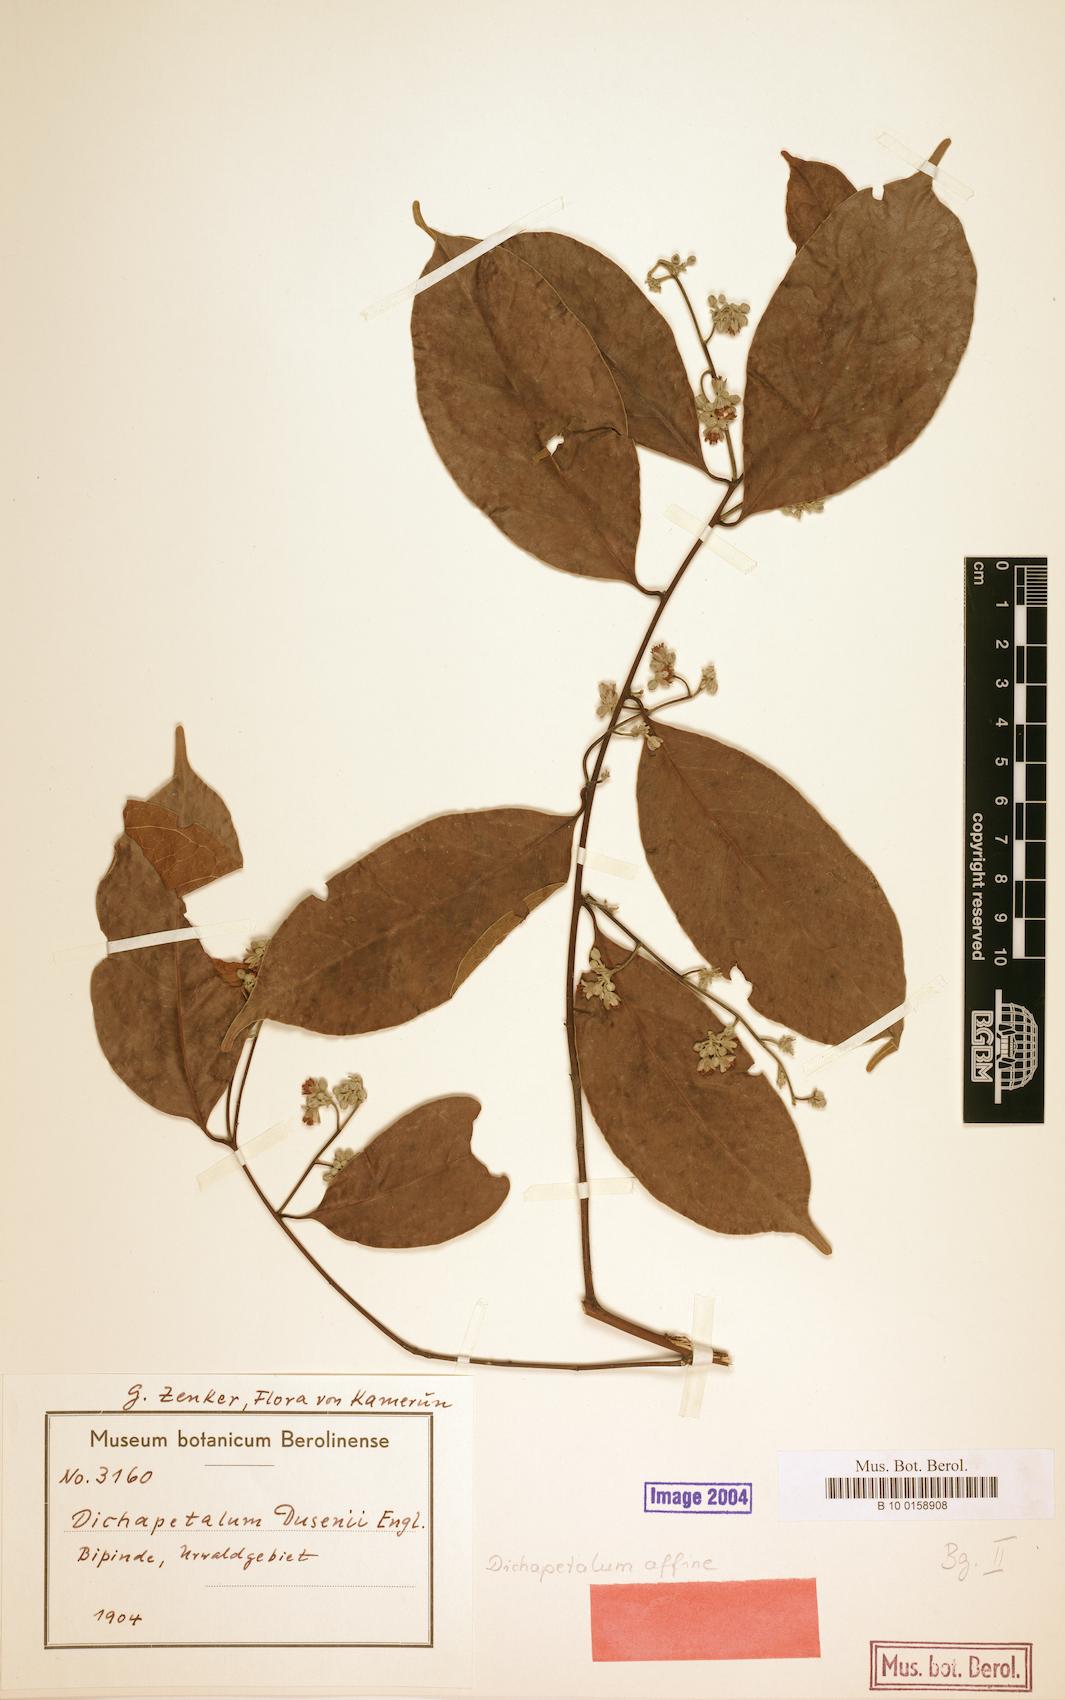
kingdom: Plantae
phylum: Tracheophyta
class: Magnoliopsida
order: Malpighiales
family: Dichapetalaceae
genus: Dichapetalum
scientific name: Dichapetalum affine
